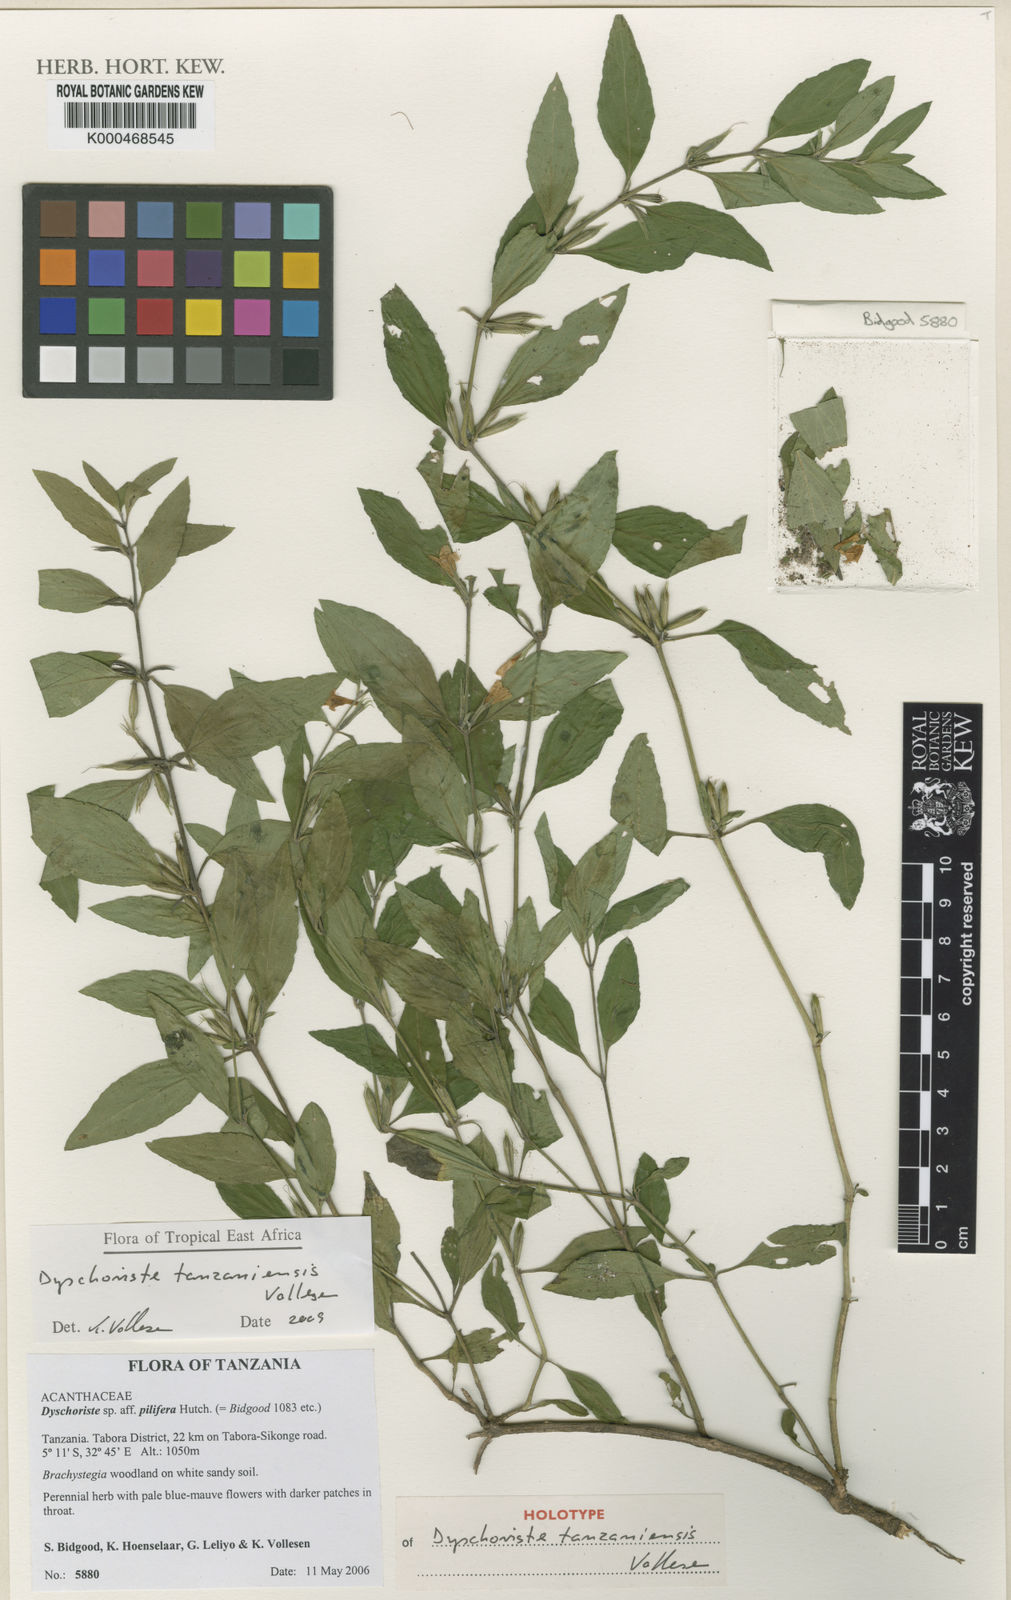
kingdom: Plantae
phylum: Tracheophyta
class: Magnoliopsida
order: Lamiales
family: Acanthaceae
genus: Dyschoriste
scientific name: Dyschoriste tanzaniensis
